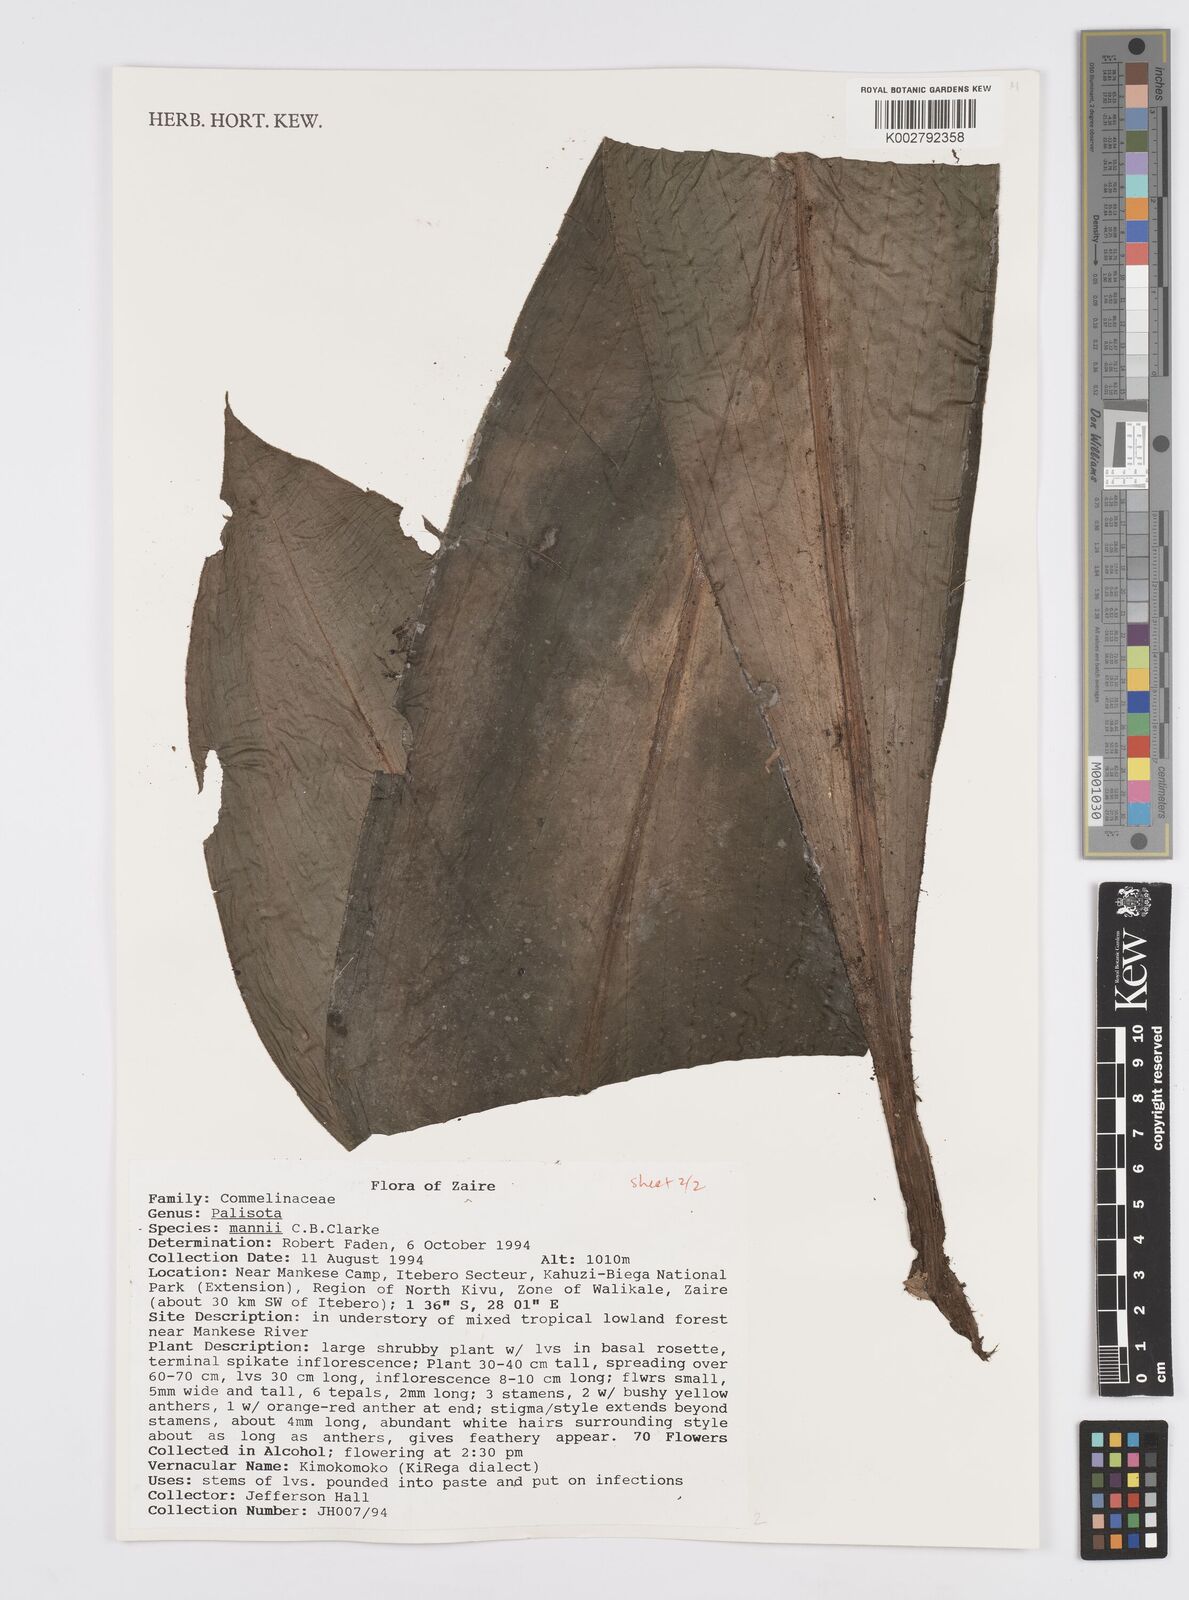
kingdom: Plantae
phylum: Tracheophyta
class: Liliopsida
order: Commelinales
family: Commelinaceae
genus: Palisota
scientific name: Palisota mannii
